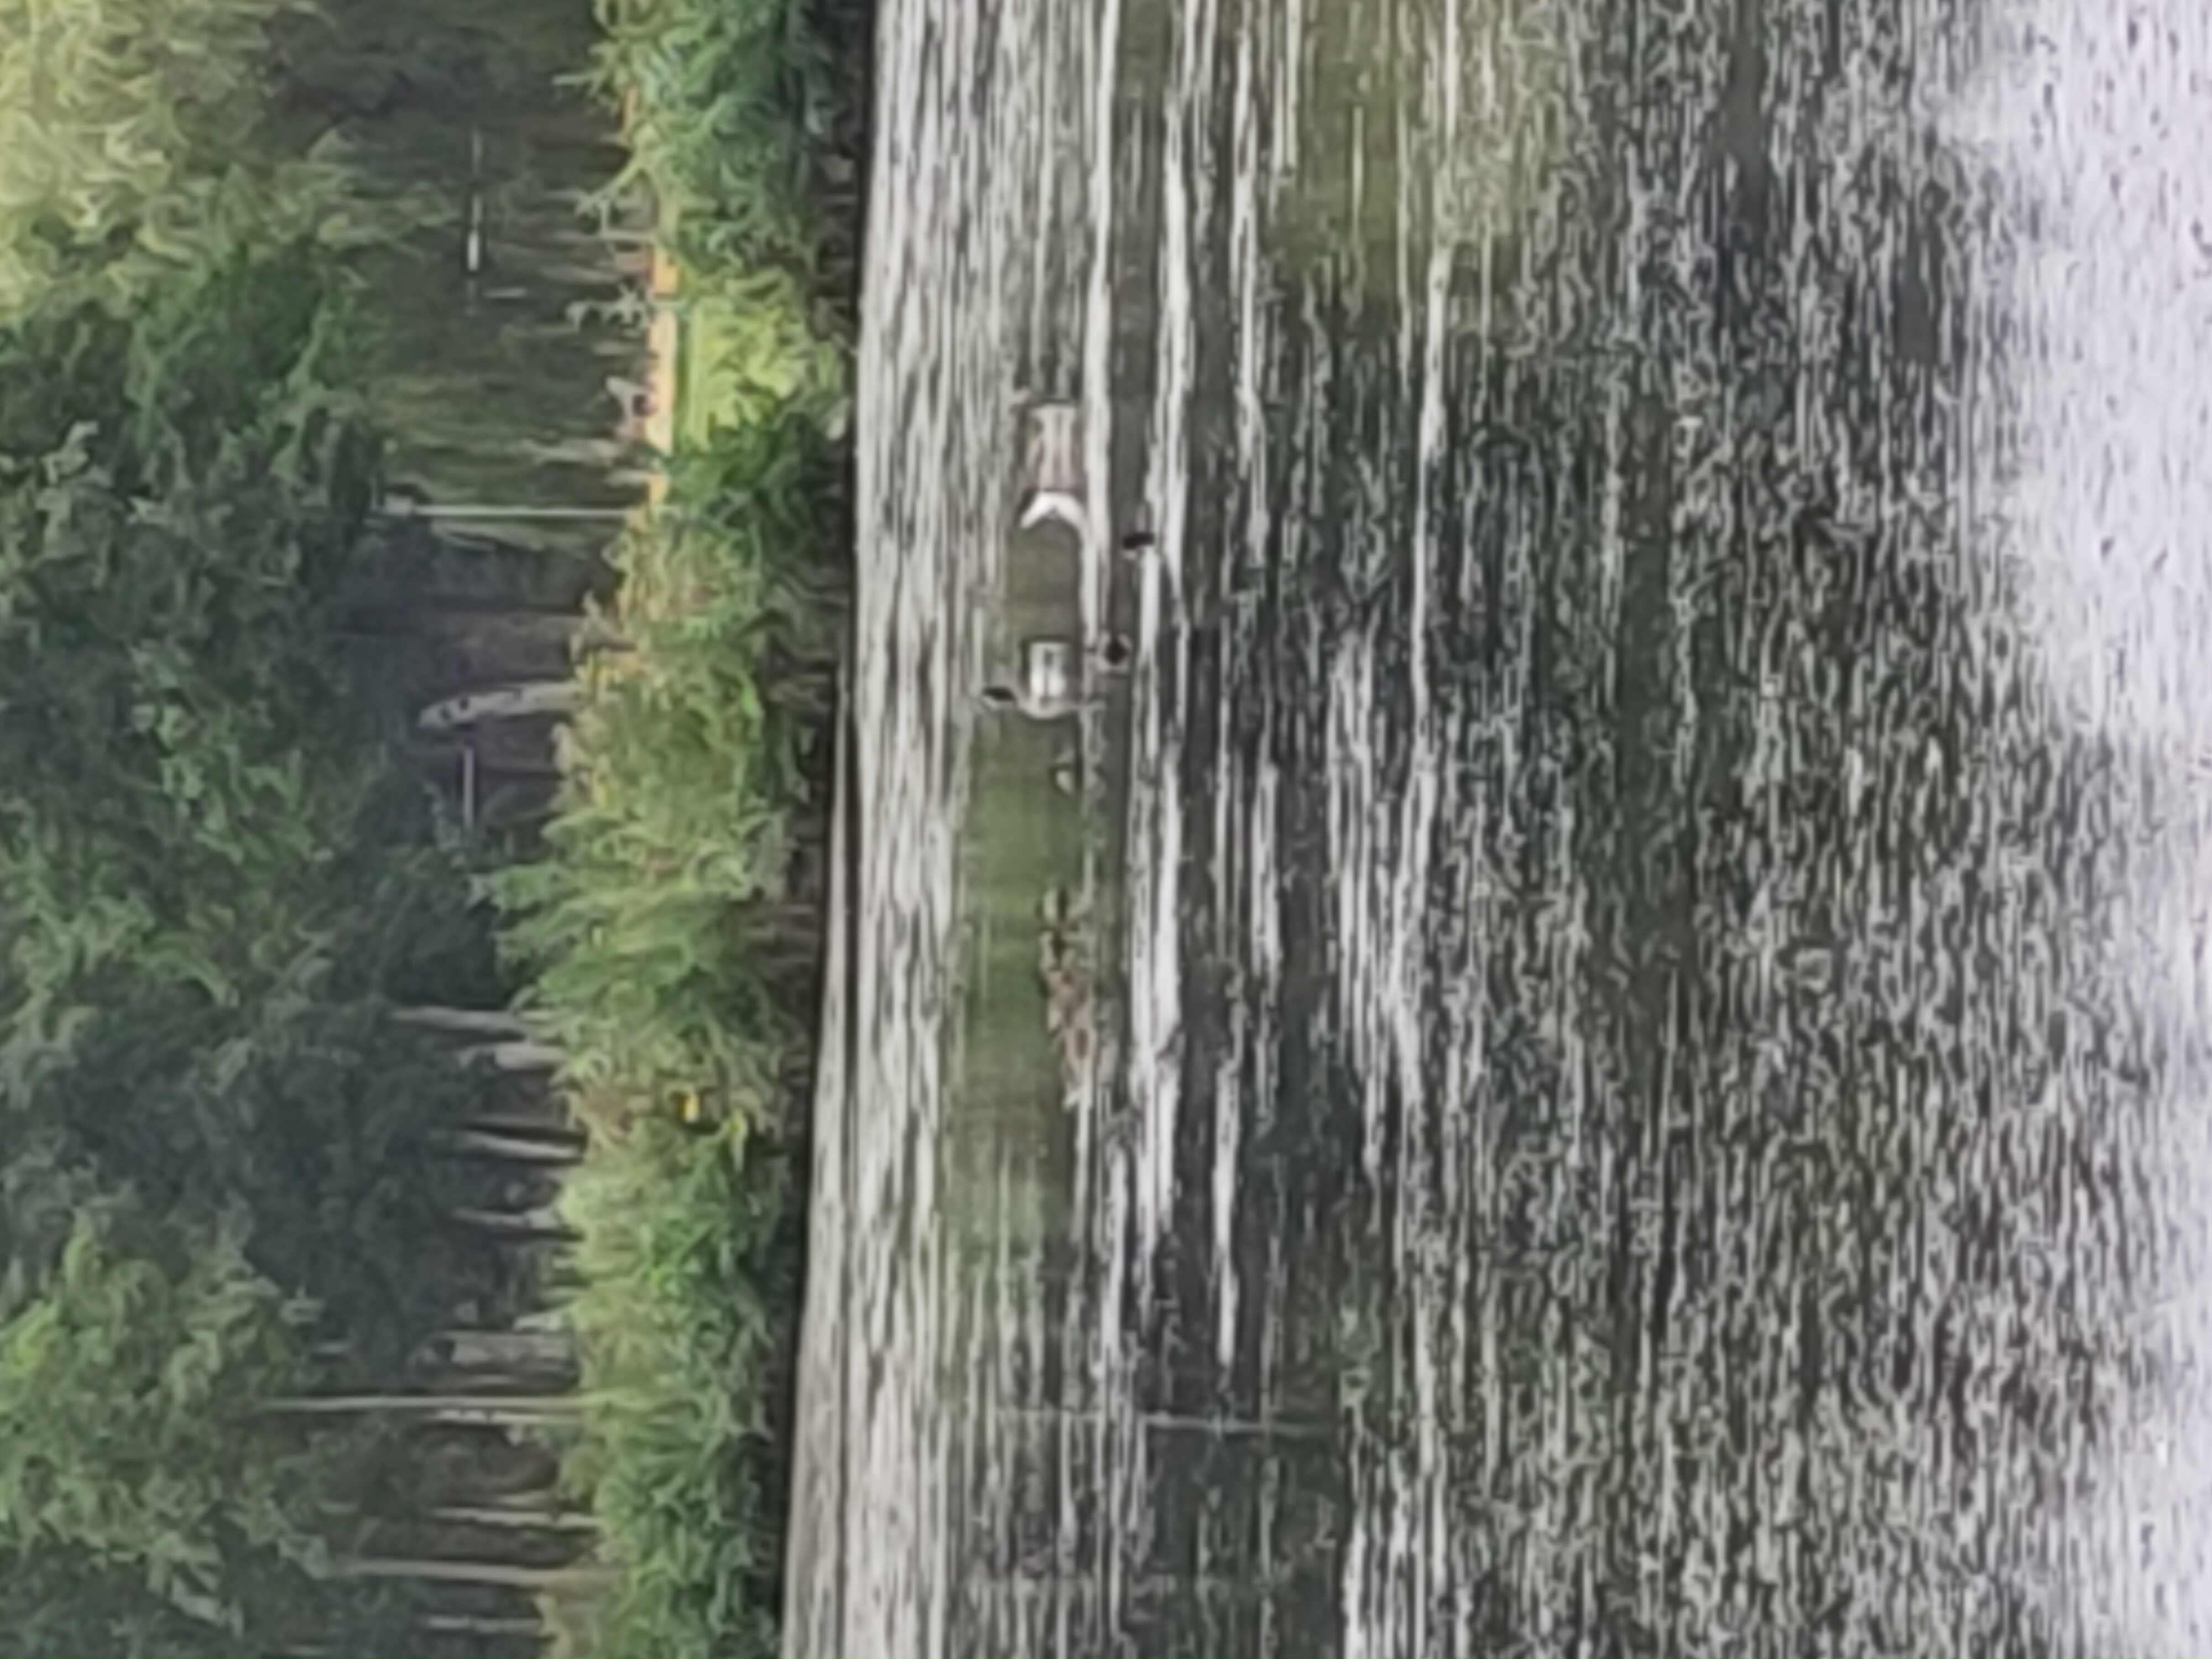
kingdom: Animalia
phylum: Chordata
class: Aves
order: Anseriformes
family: Anatidae
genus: Branta
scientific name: Branta canadensis
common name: Canadagås
